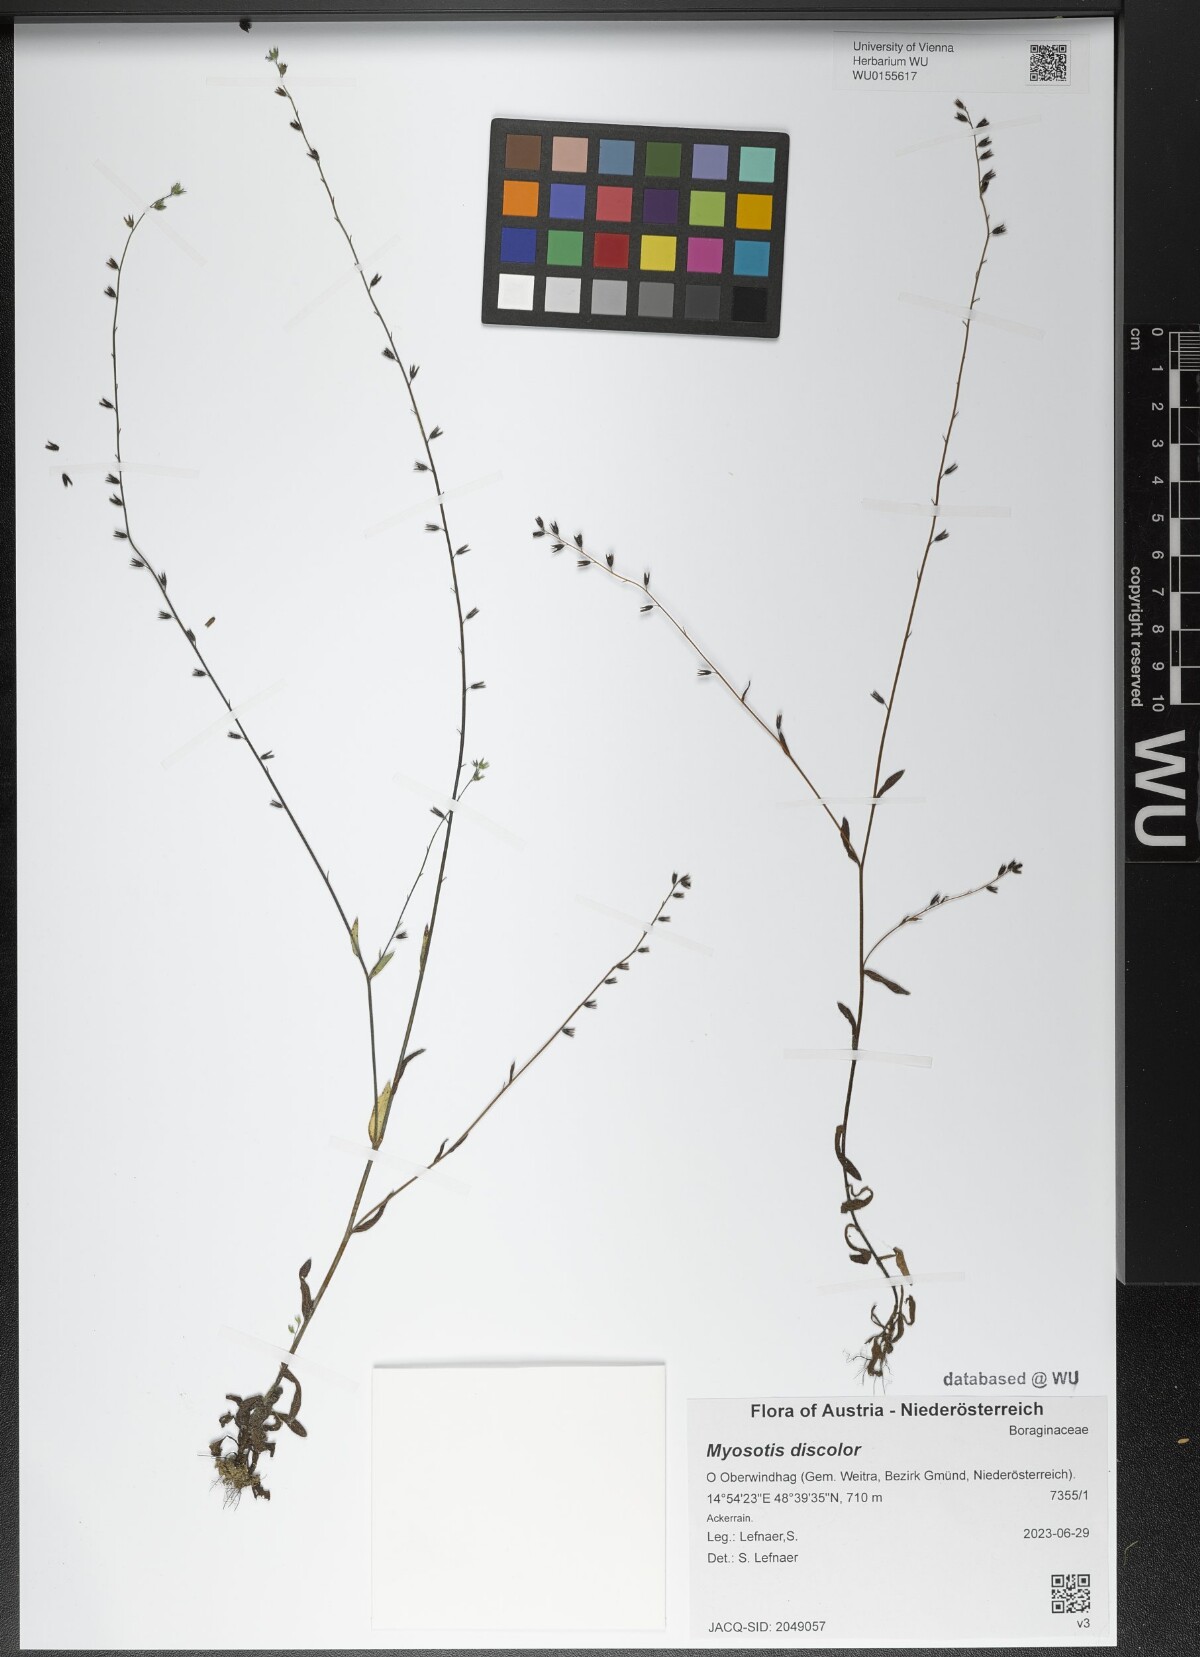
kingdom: Plantae
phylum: Tracheophyta
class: Magnoliopsida
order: Boraginales
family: Boraginaceae
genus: Myosotis
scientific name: Myosotis discolor
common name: Changing forget-me-not
